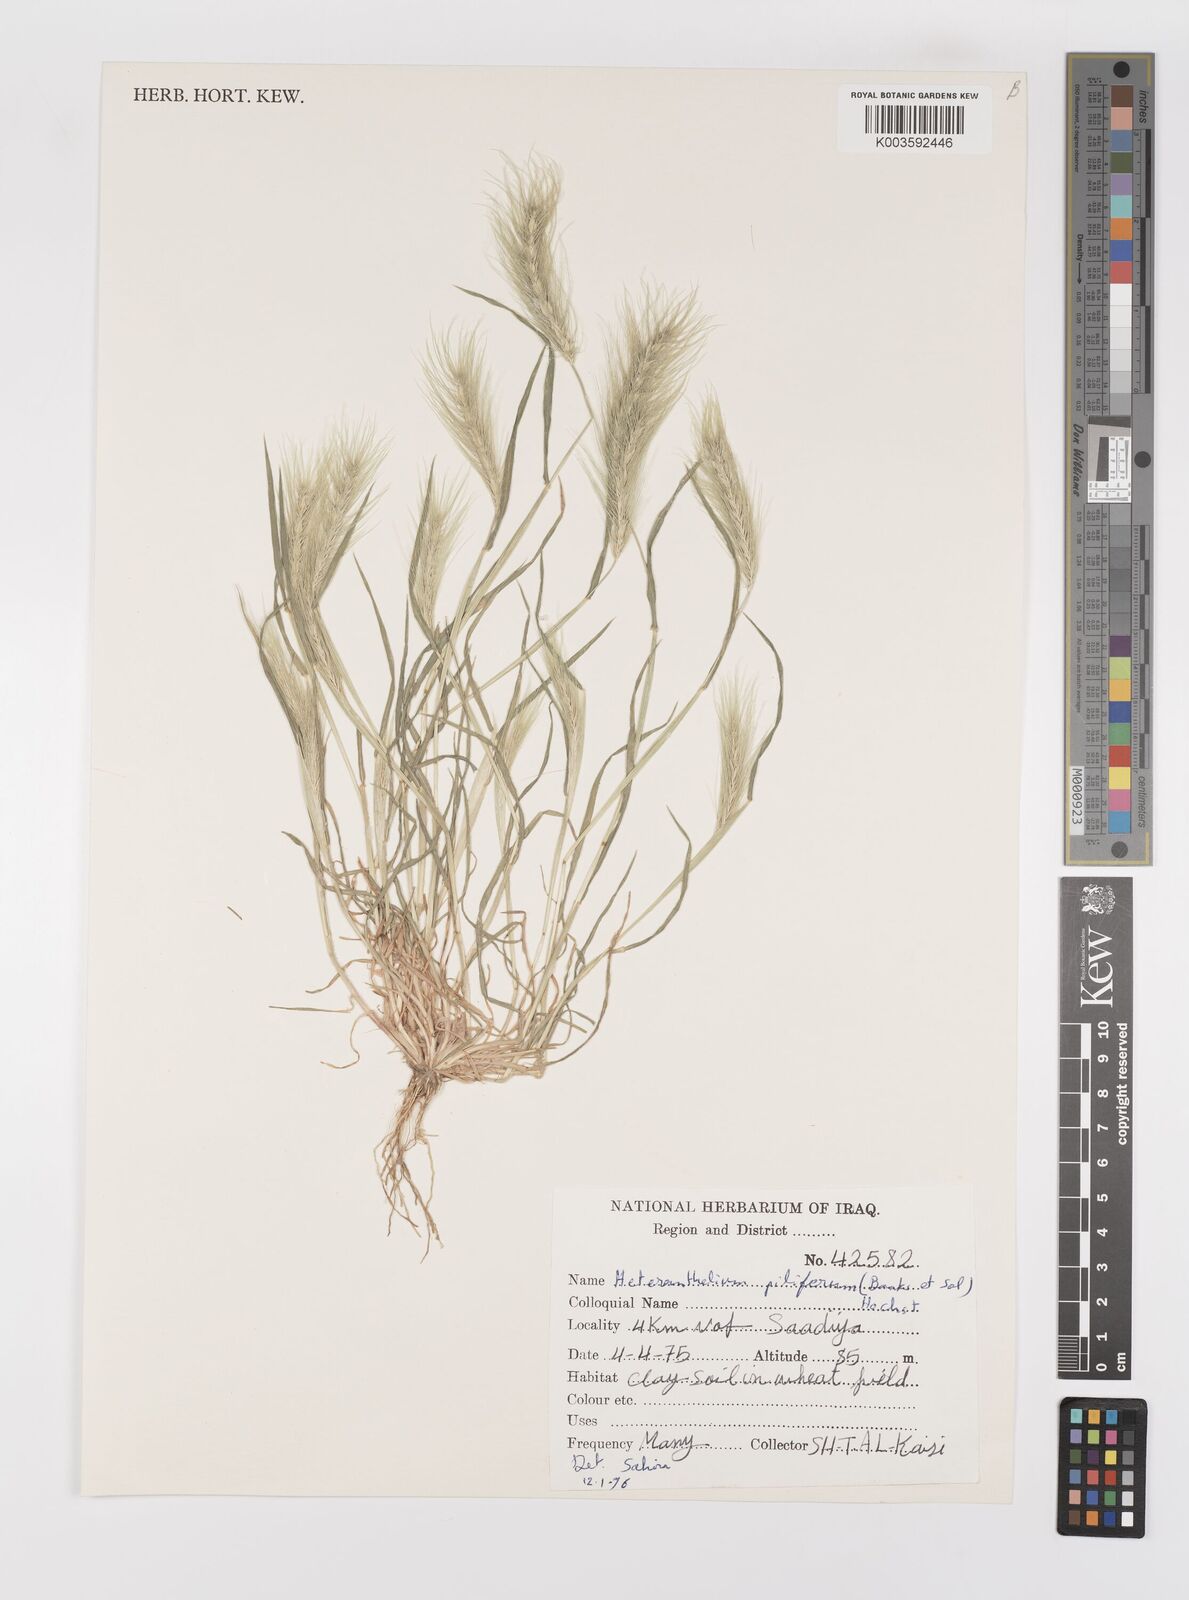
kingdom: Plantae
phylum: Tracheophyta
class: Liliopsida
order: Poales
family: Poaceae
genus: Heteranthelium
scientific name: Heteranthelium piliferum
